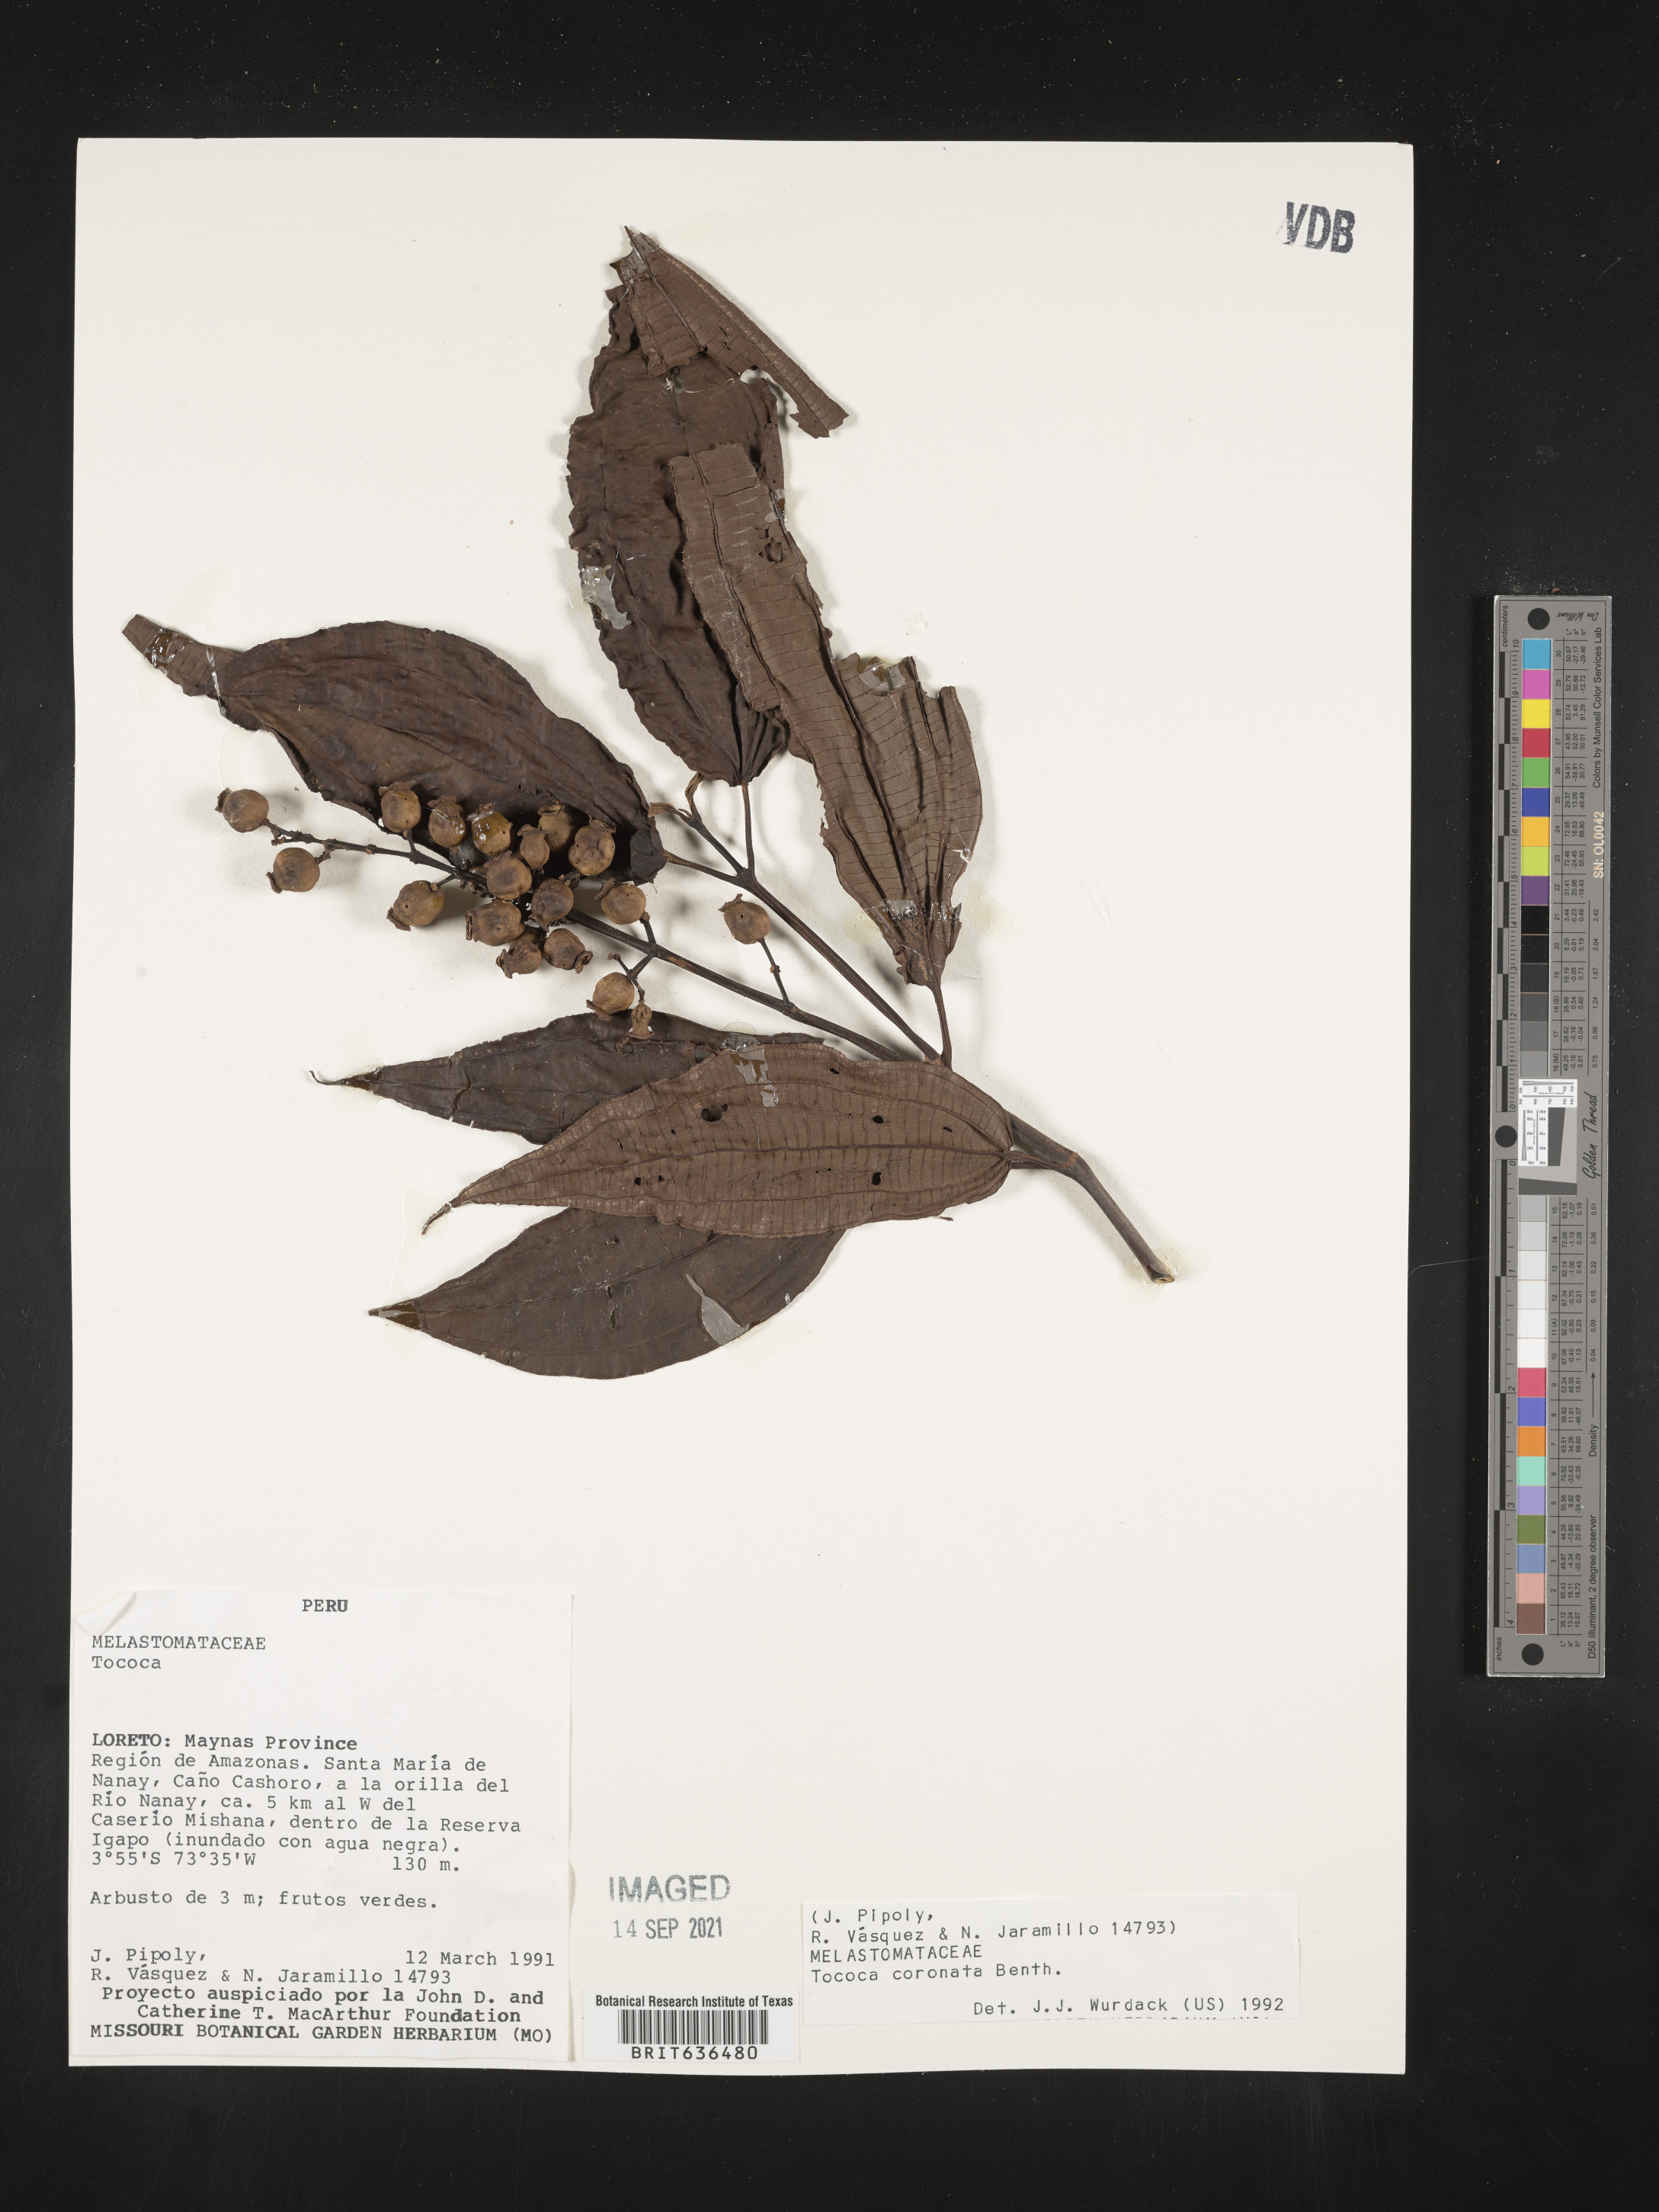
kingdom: Plantae
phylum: Tracheophyta
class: Magnoliopsida
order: Myrtales
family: Melastomataceae
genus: Tibouchina
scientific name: Tibouchina
